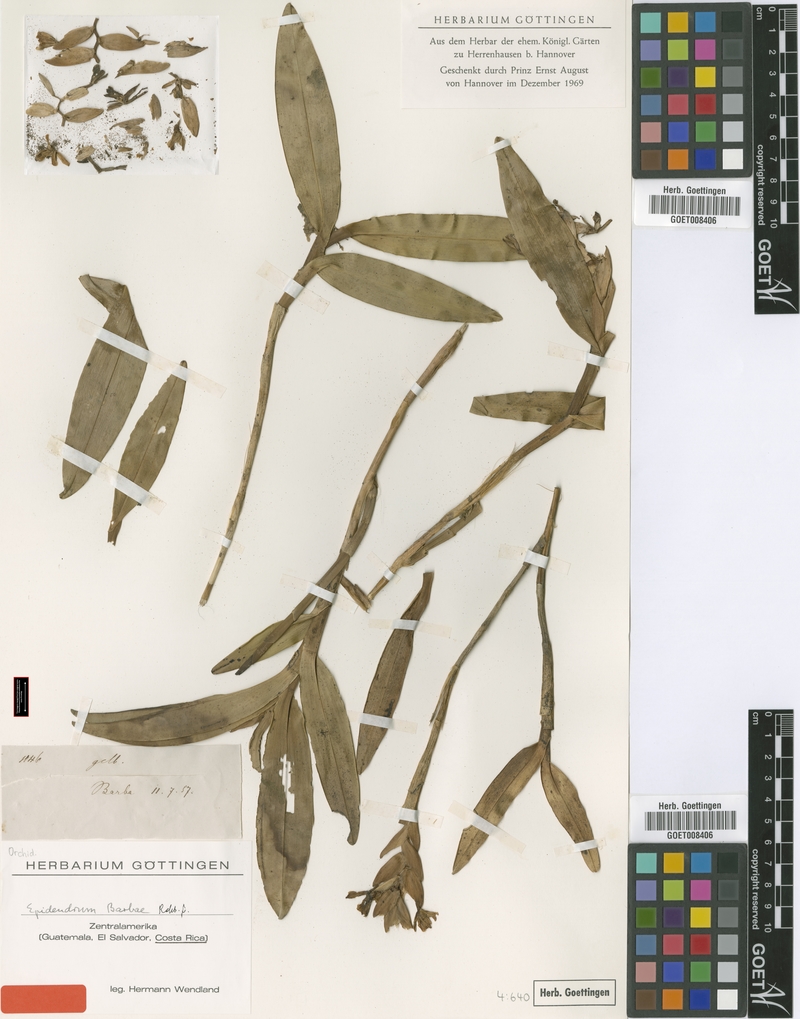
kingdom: Plantae
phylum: Tracheophyta
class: Liliopsida
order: Asparagales
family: Orchidaceae
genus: Epidendrum
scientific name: Epidendrum barbae
